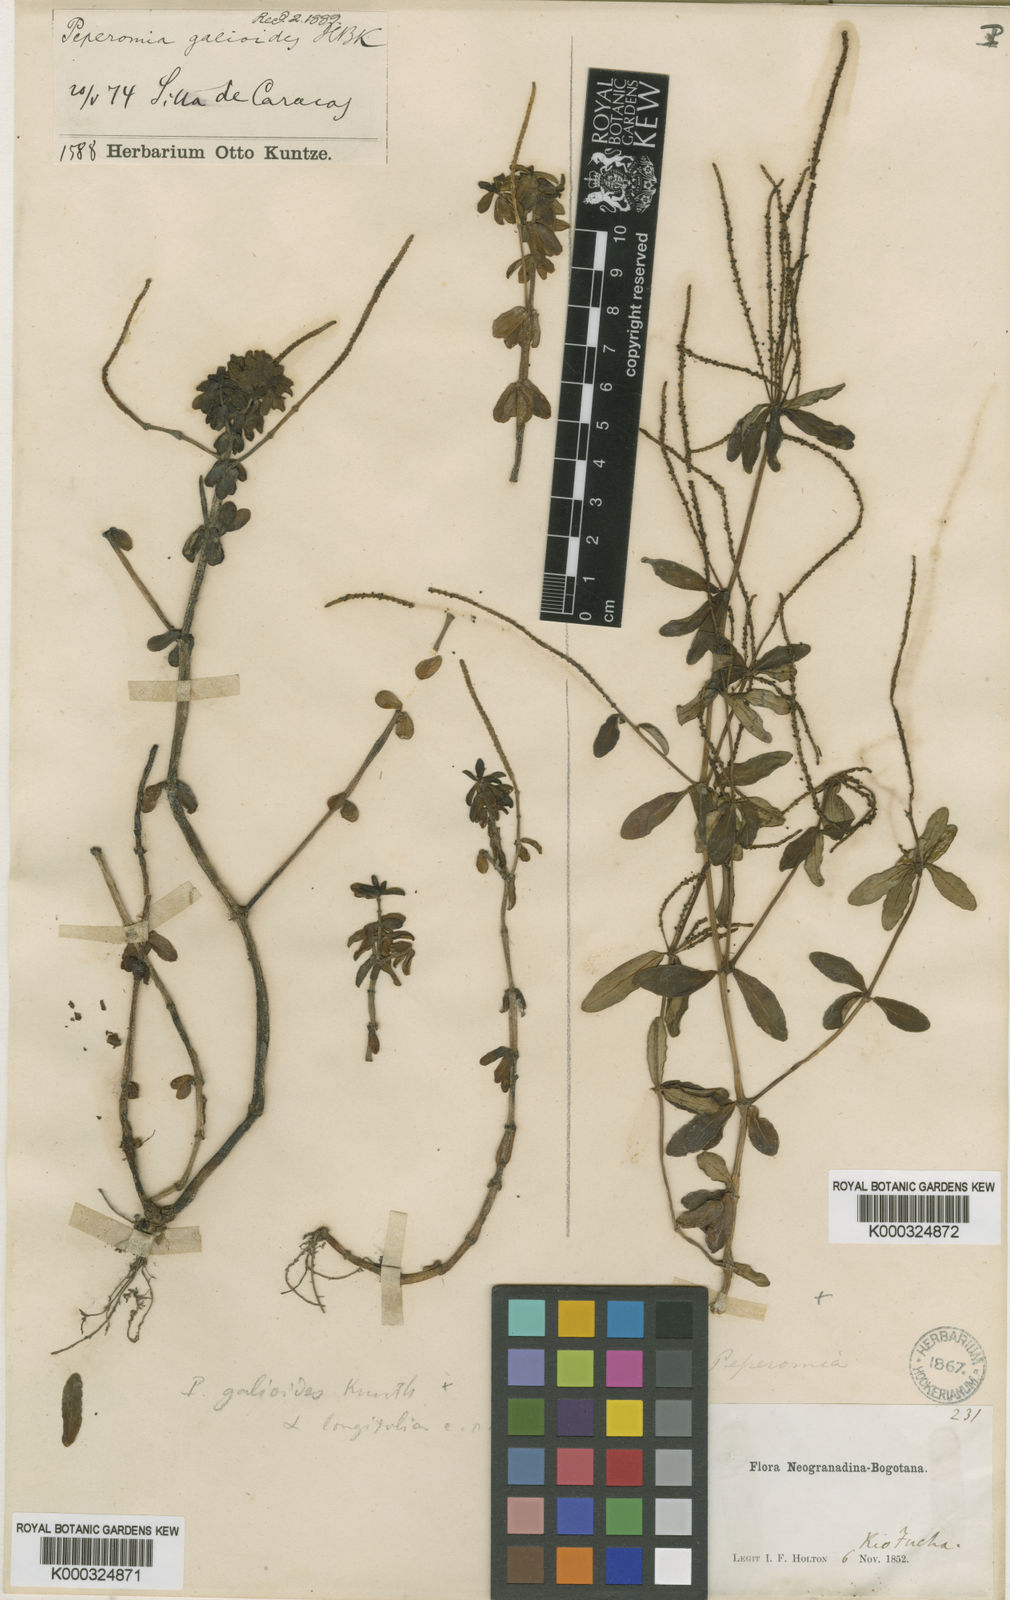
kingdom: Plantae
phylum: Tracheophyta
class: Magnoliopsida
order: Piperales
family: Piperaceae
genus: Peperomia
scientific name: Peperomia galioides
